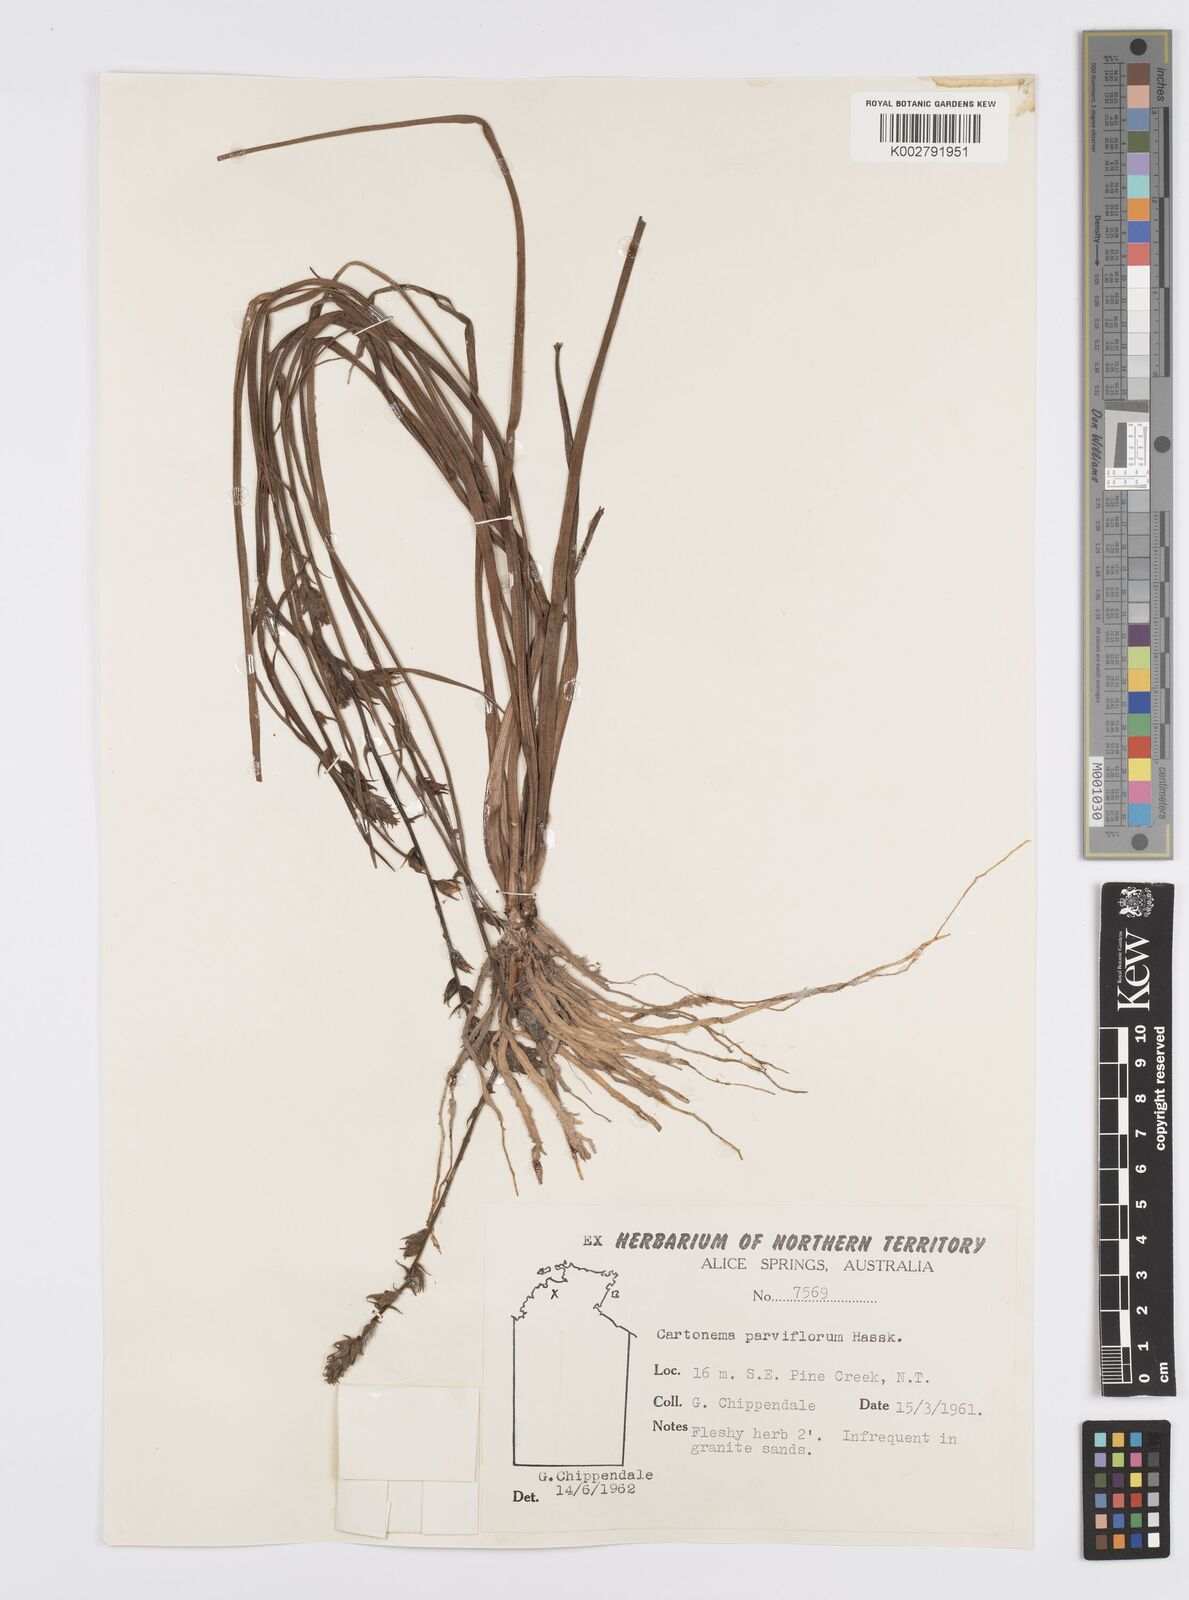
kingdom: Plantae
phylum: Tracheophyta
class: Liliopsida
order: Commelinales
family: Commelinaceae
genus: Cartonema
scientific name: Cartonema parviflorum
